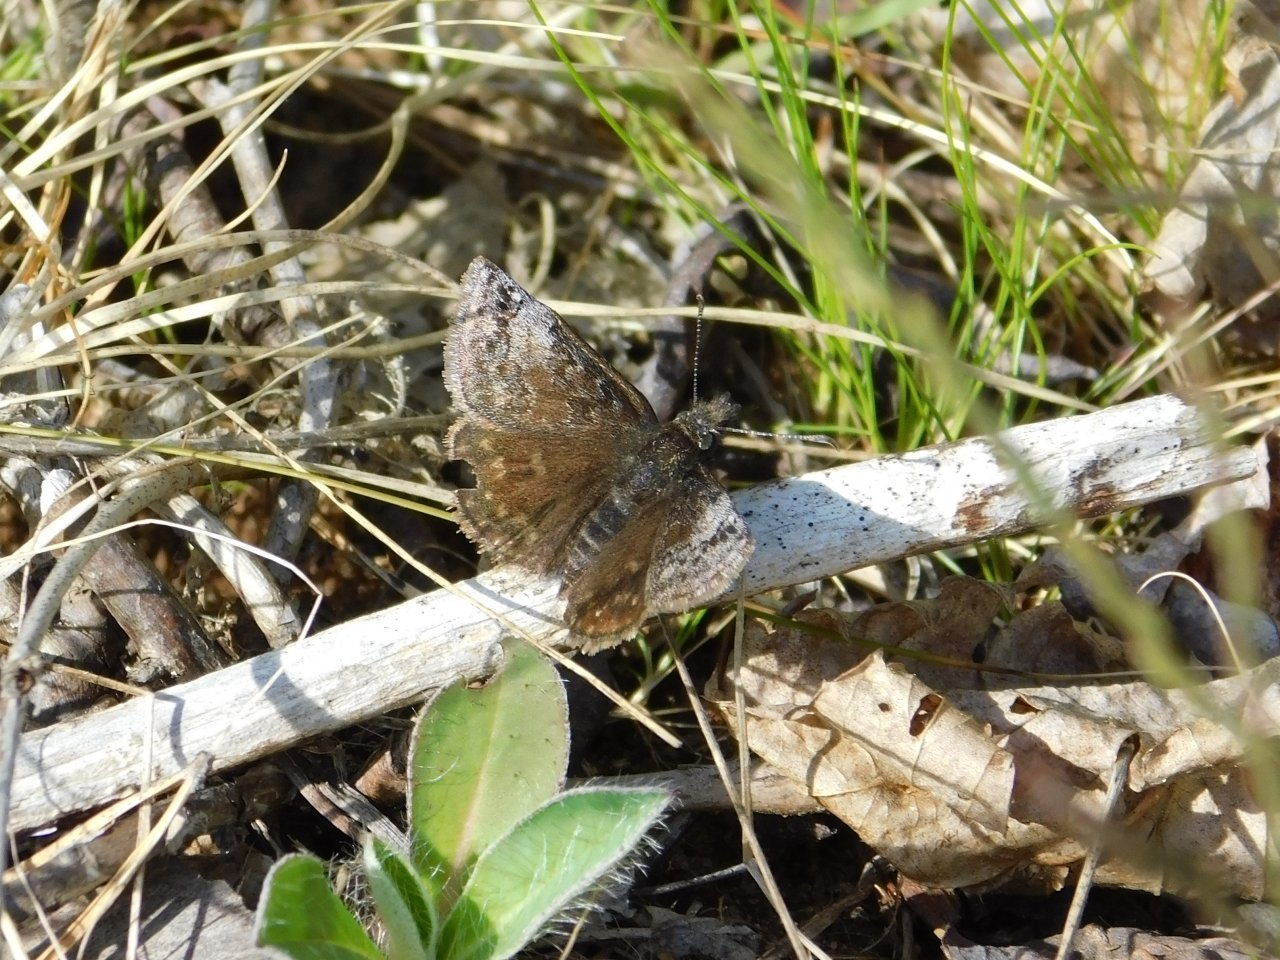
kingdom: Animalia
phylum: Arthropoda
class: Insecta
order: Lepidoptera
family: Hesperiidae
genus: Erynnis
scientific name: Erynnis icelus
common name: Dreamy Duskywing
